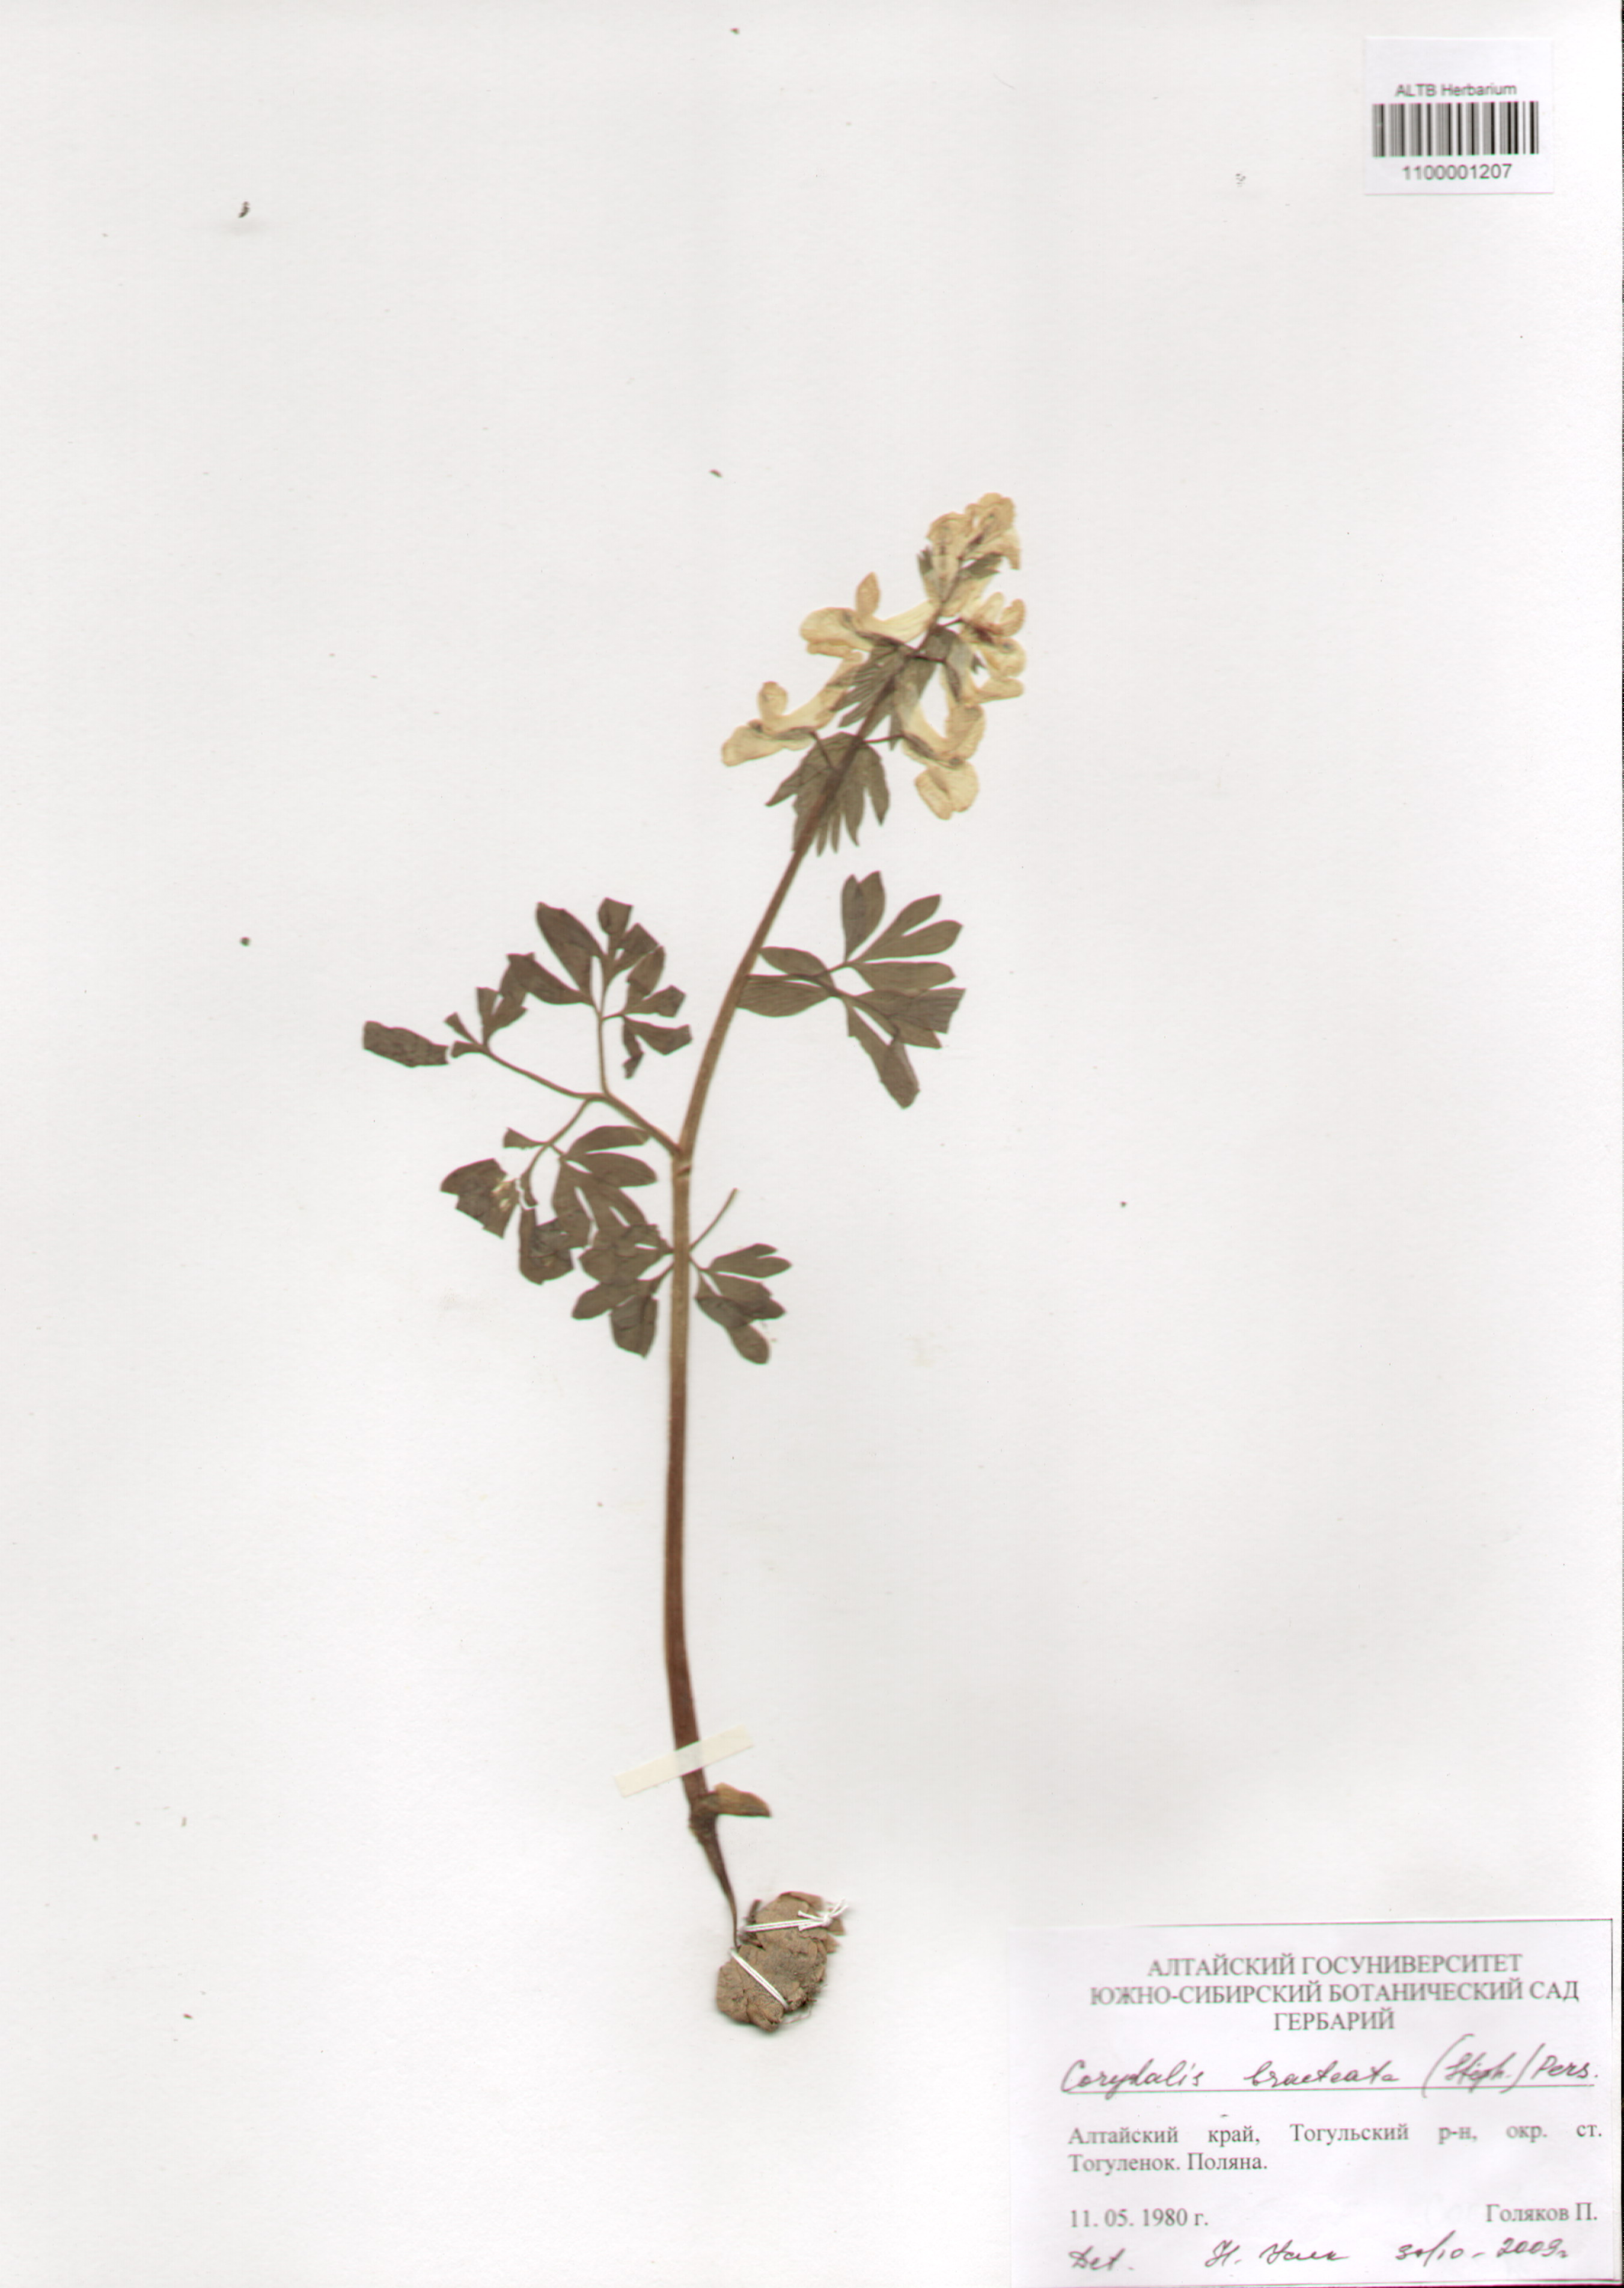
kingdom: Plantae
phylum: Tracheophyta
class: Magnoliopsida
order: Ranunculales
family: Papaveraceae
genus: Corydalis
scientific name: Corydalis bracteata
